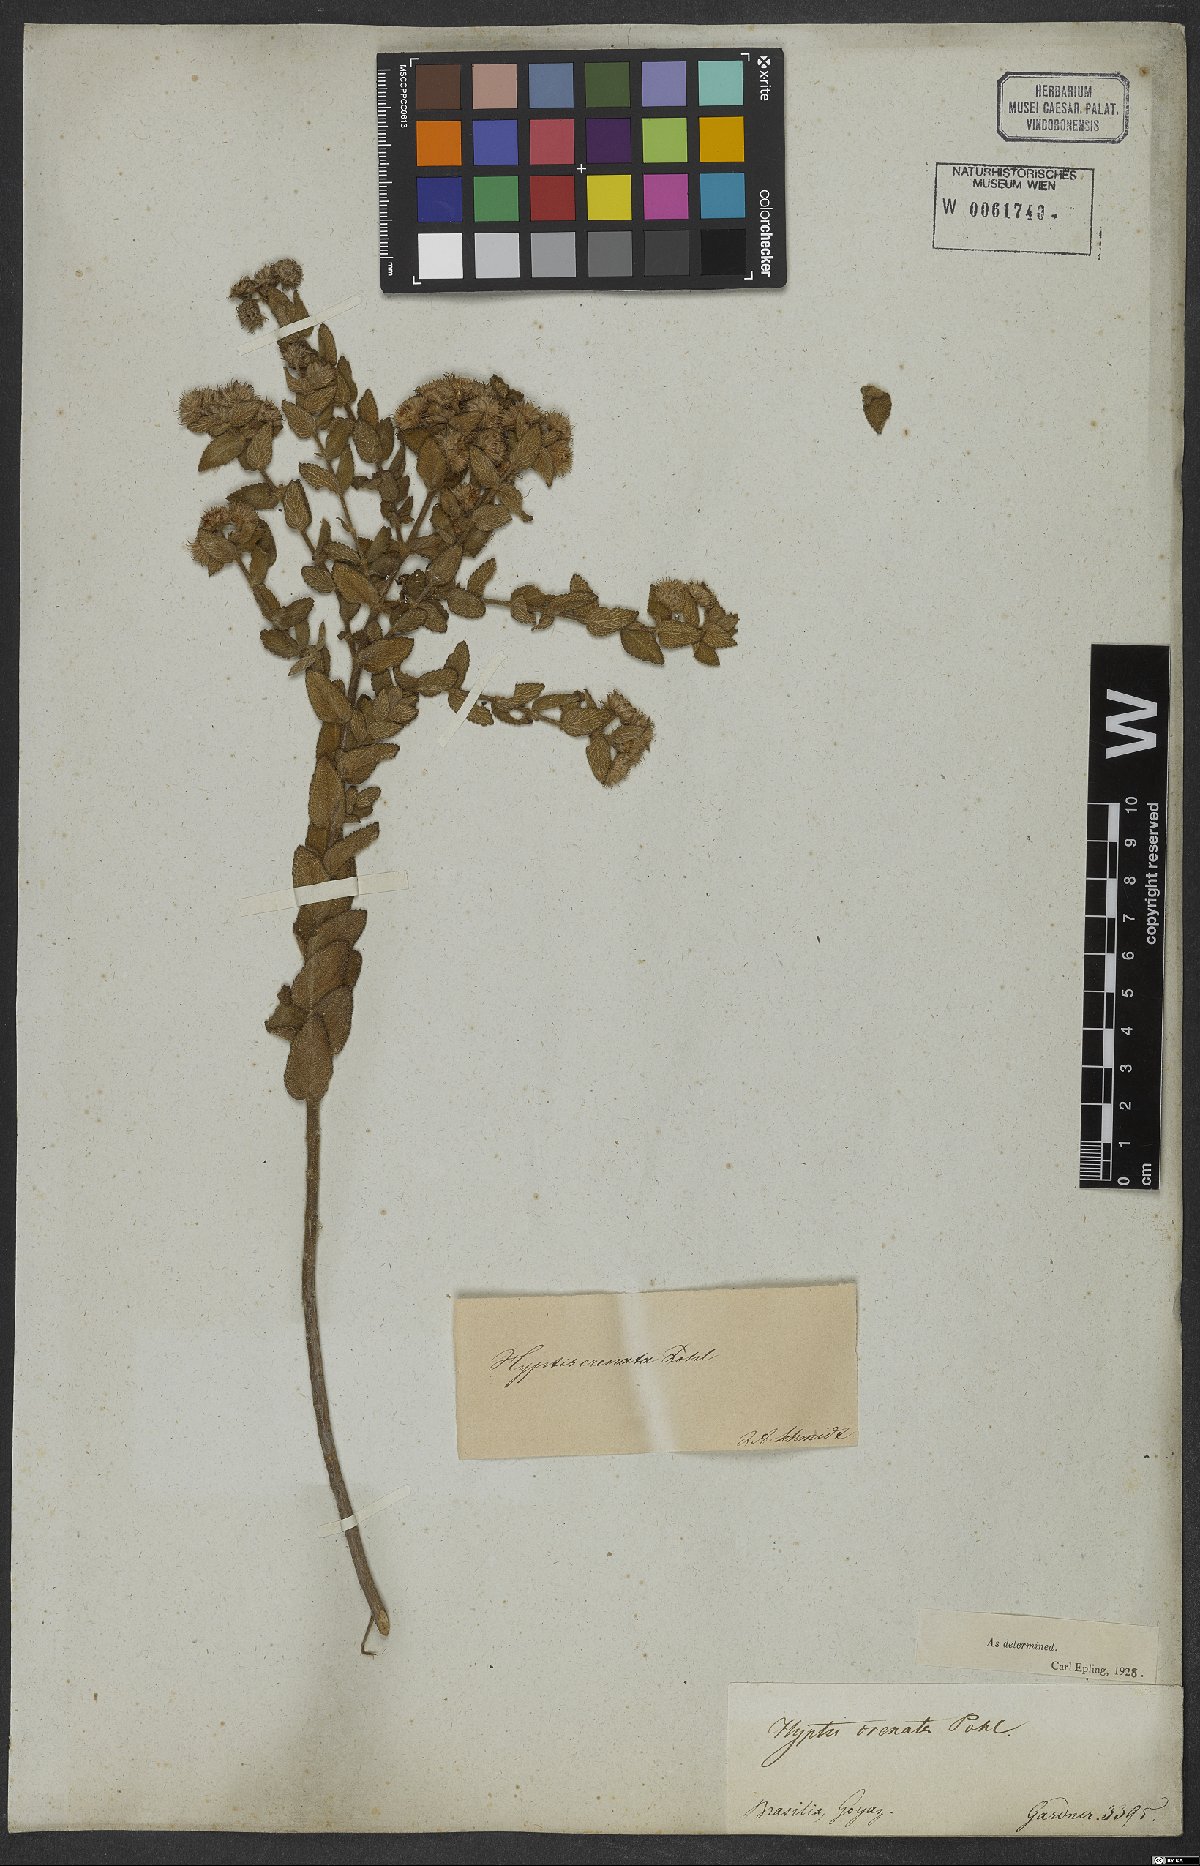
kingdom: Plantae
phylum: Tracheophyta
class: Magnoliopsida
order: Lamiales
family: Lamiaceae
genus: Hyptis
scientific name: Hyptis crenata
